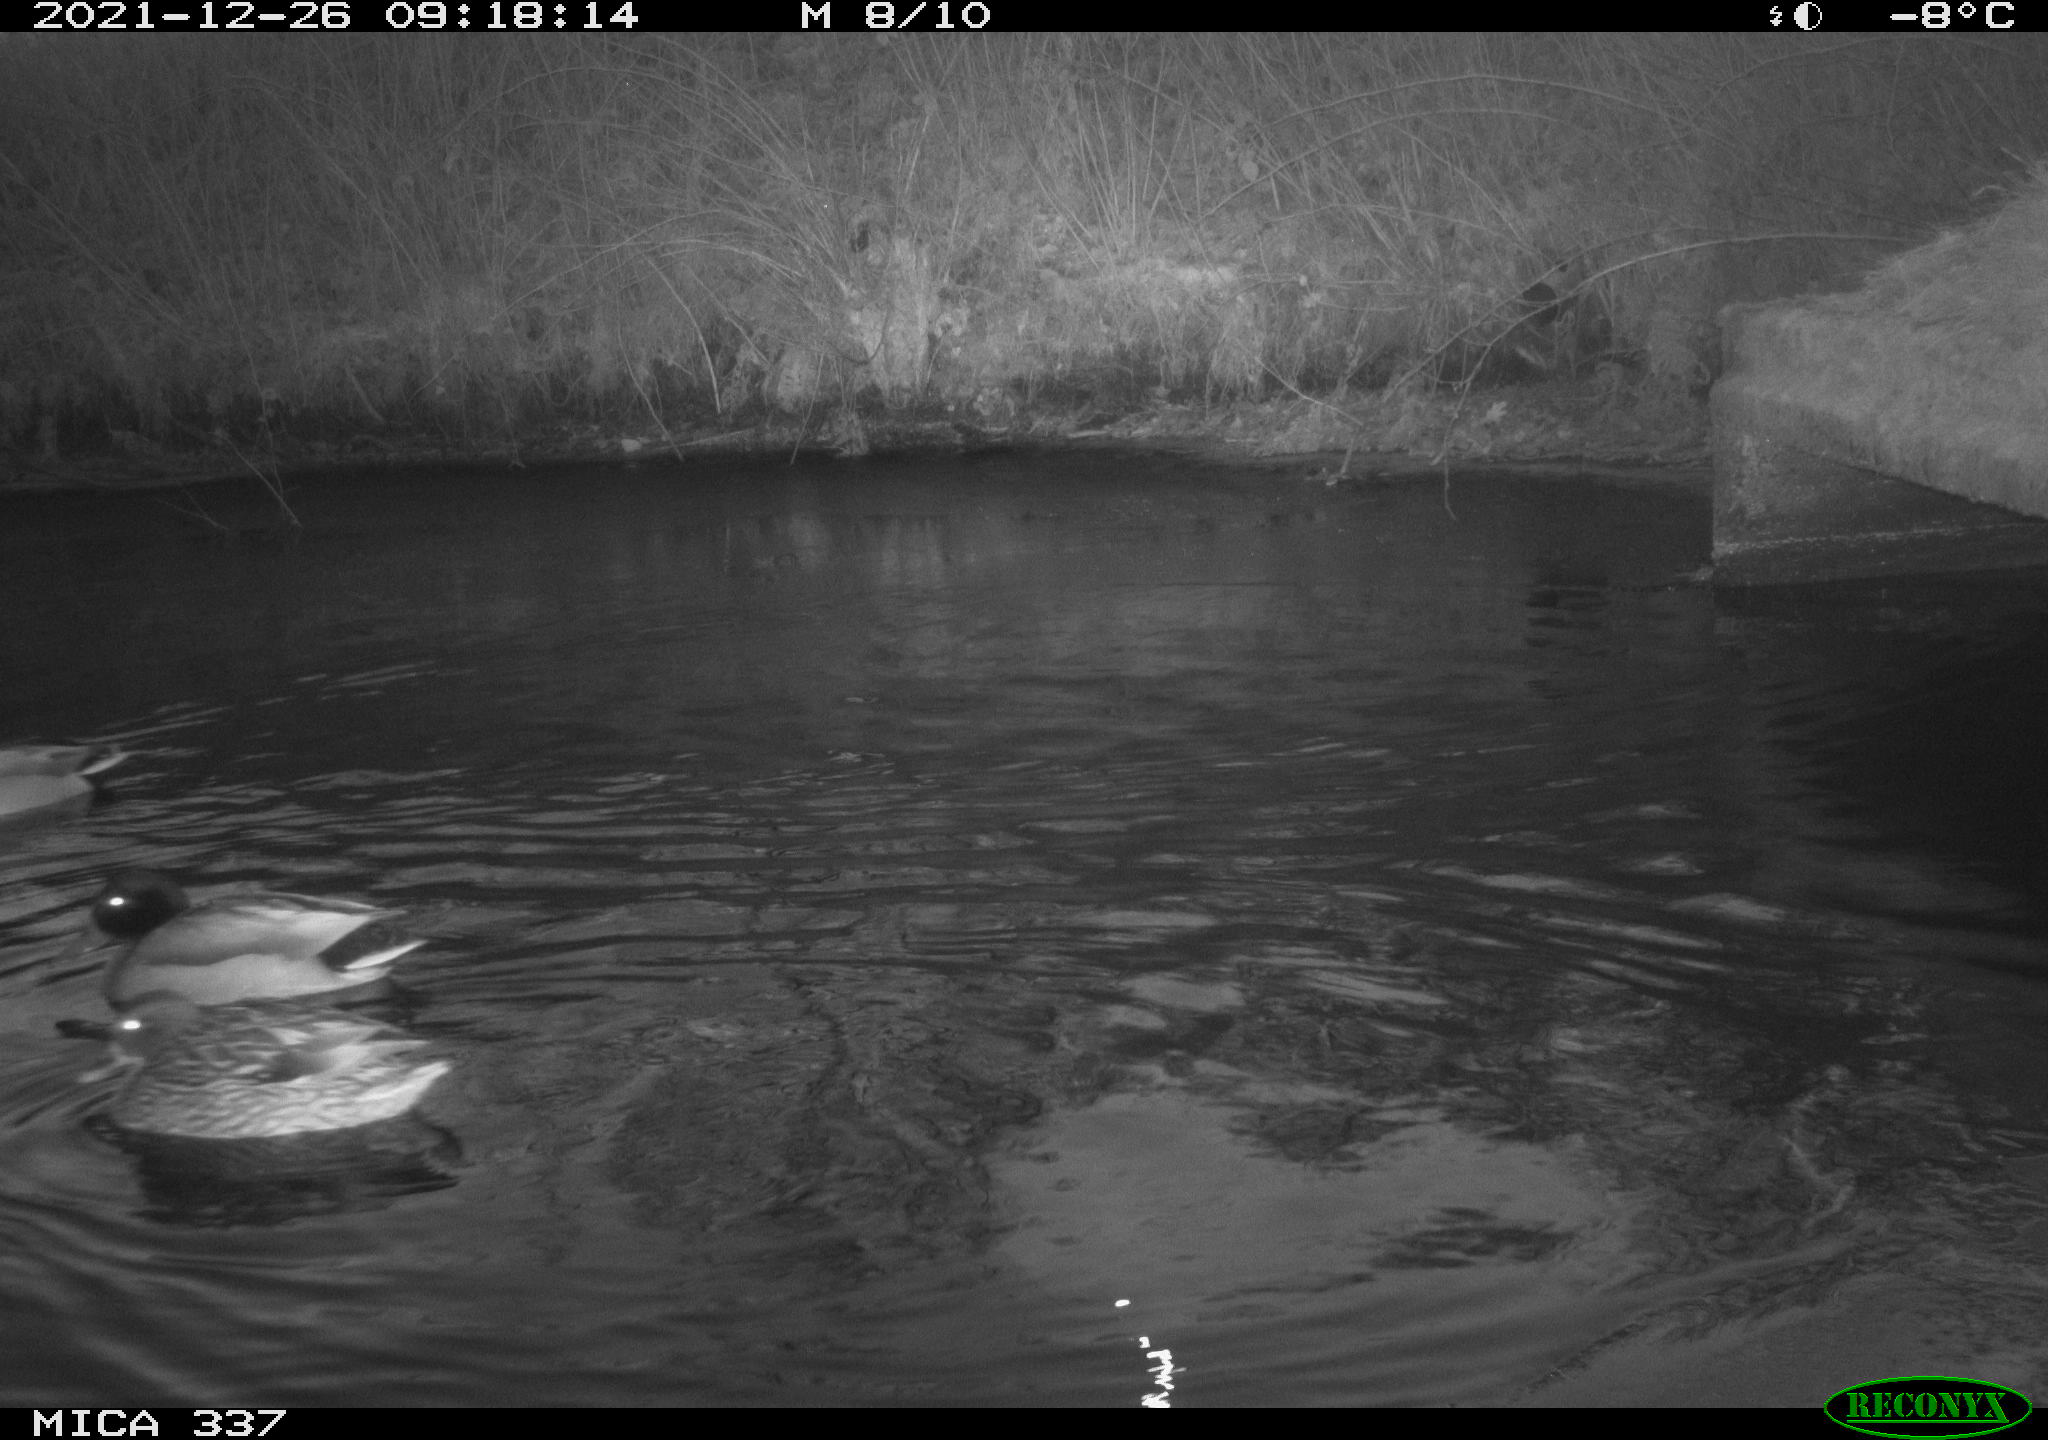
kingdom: Animalia
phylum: Chordata
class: Aves
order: Anseriformes
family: Anatidae
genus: Anas
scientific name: Anas platyrhynchos
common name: Mallard
